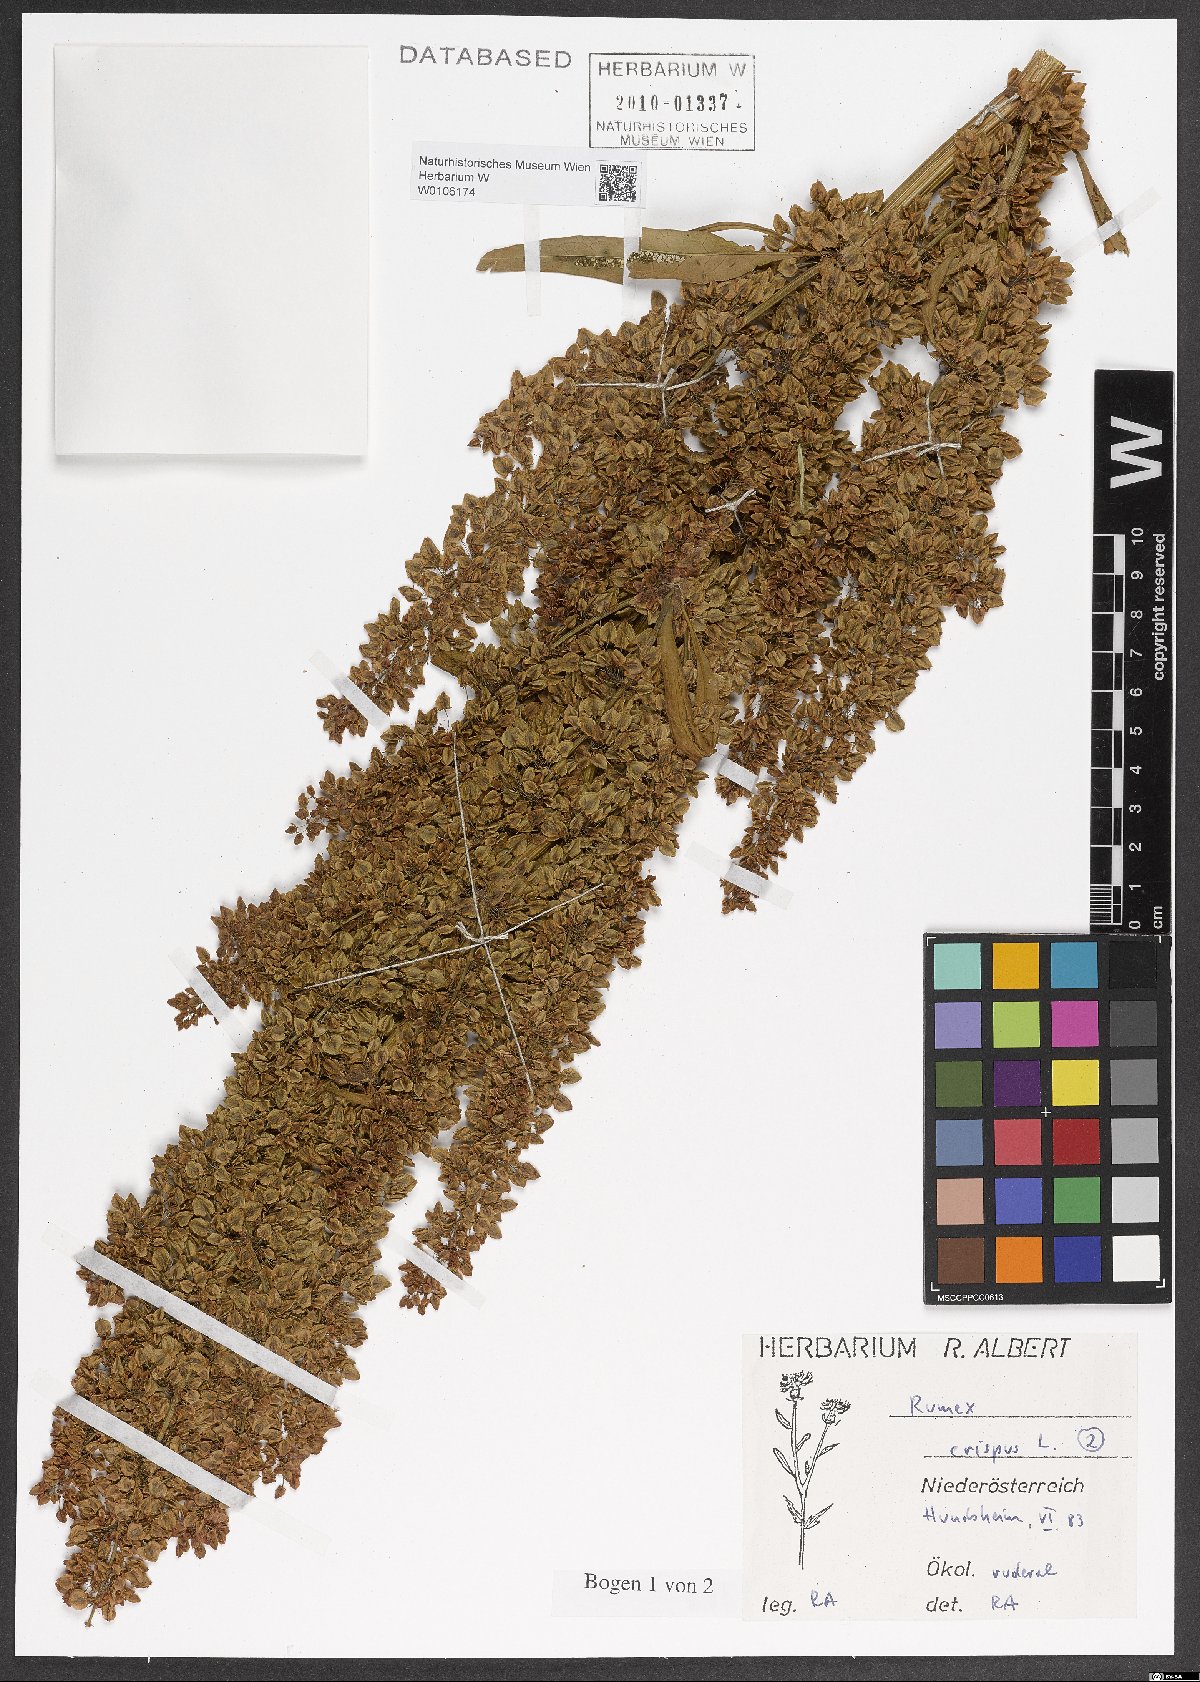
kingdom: Plantae
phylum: Tracheophyta
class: Magnoliopsida
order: Caryophyllales
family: Polygonaceae
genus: Rumex
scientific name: Rumex crispus
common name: Curled dock
